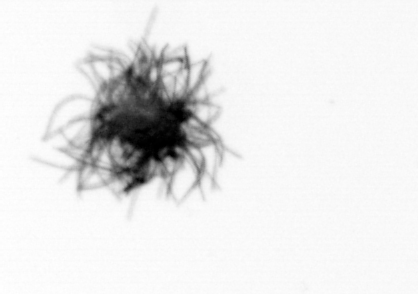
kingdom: Bacteria
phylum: Cyanobacteria
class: Cyanobacteriia
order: Cyanobacteriales
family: Microcoleaceae
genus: Trichodesmium
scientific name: Trichodesmium
